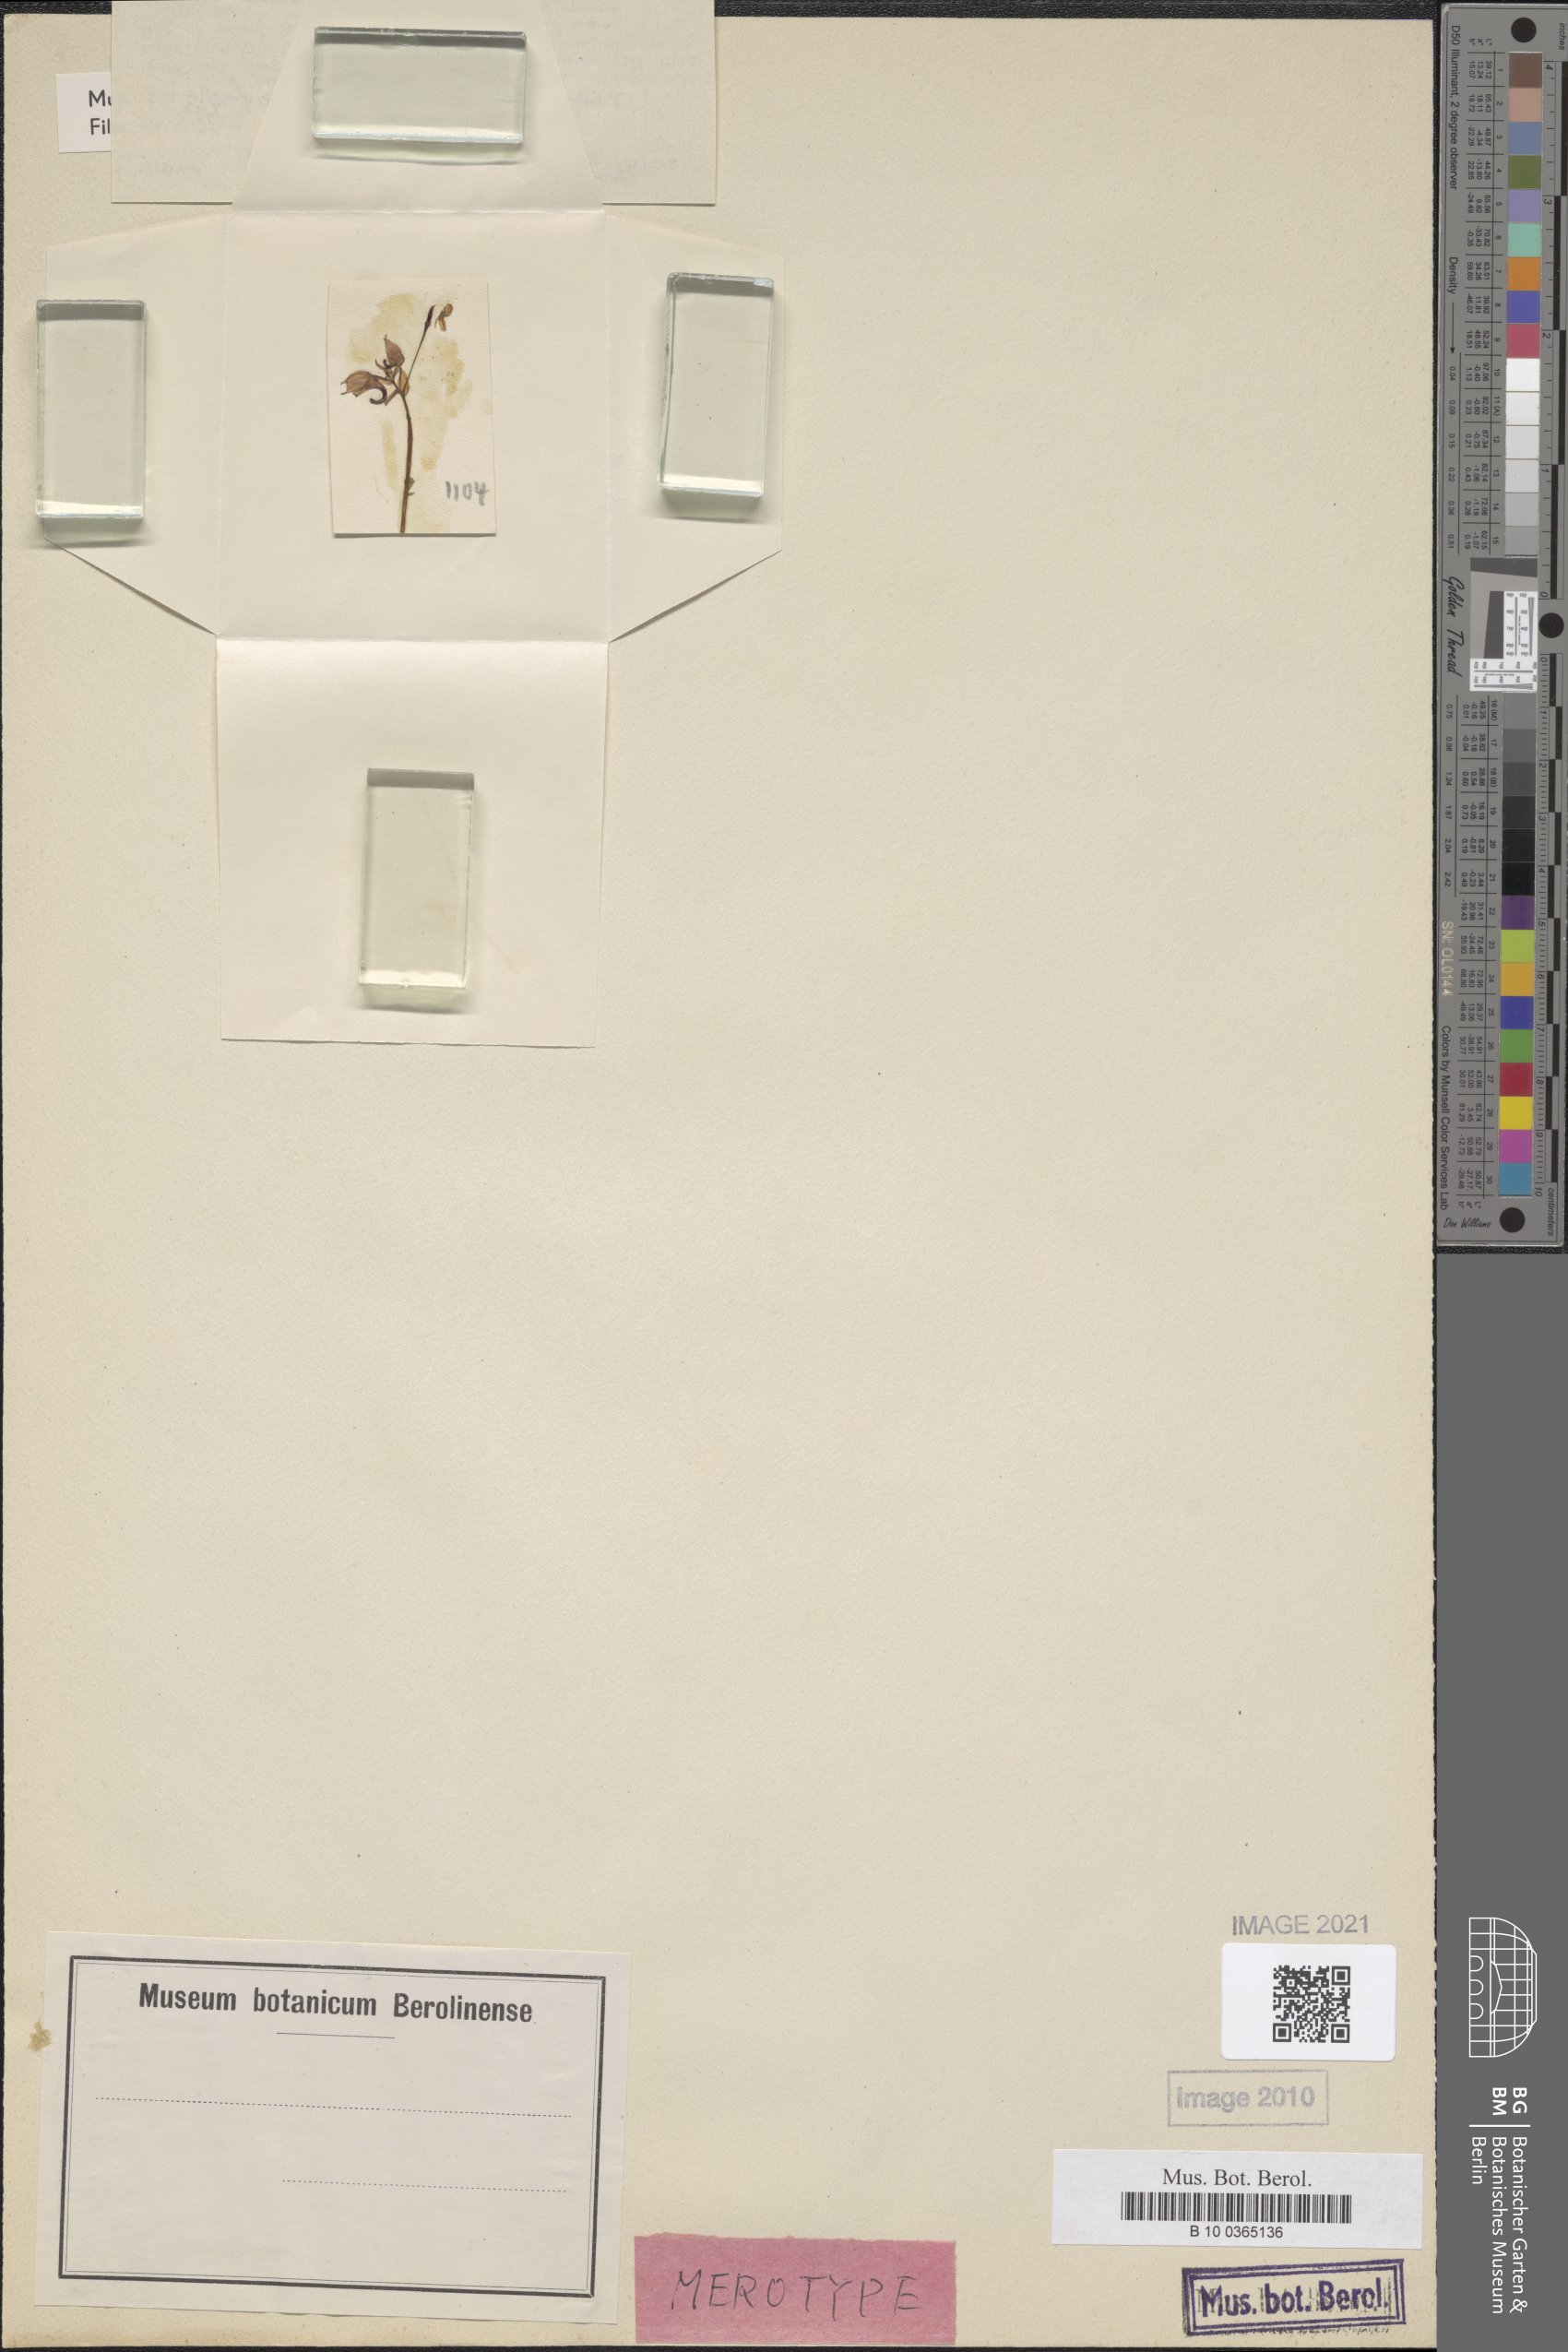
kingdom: Plantae
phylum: Tracheophyta
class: Magnoliopsida
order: Ericales
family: Balsaminaceae
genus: Impatiens
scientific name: Impatiens pinetorum
